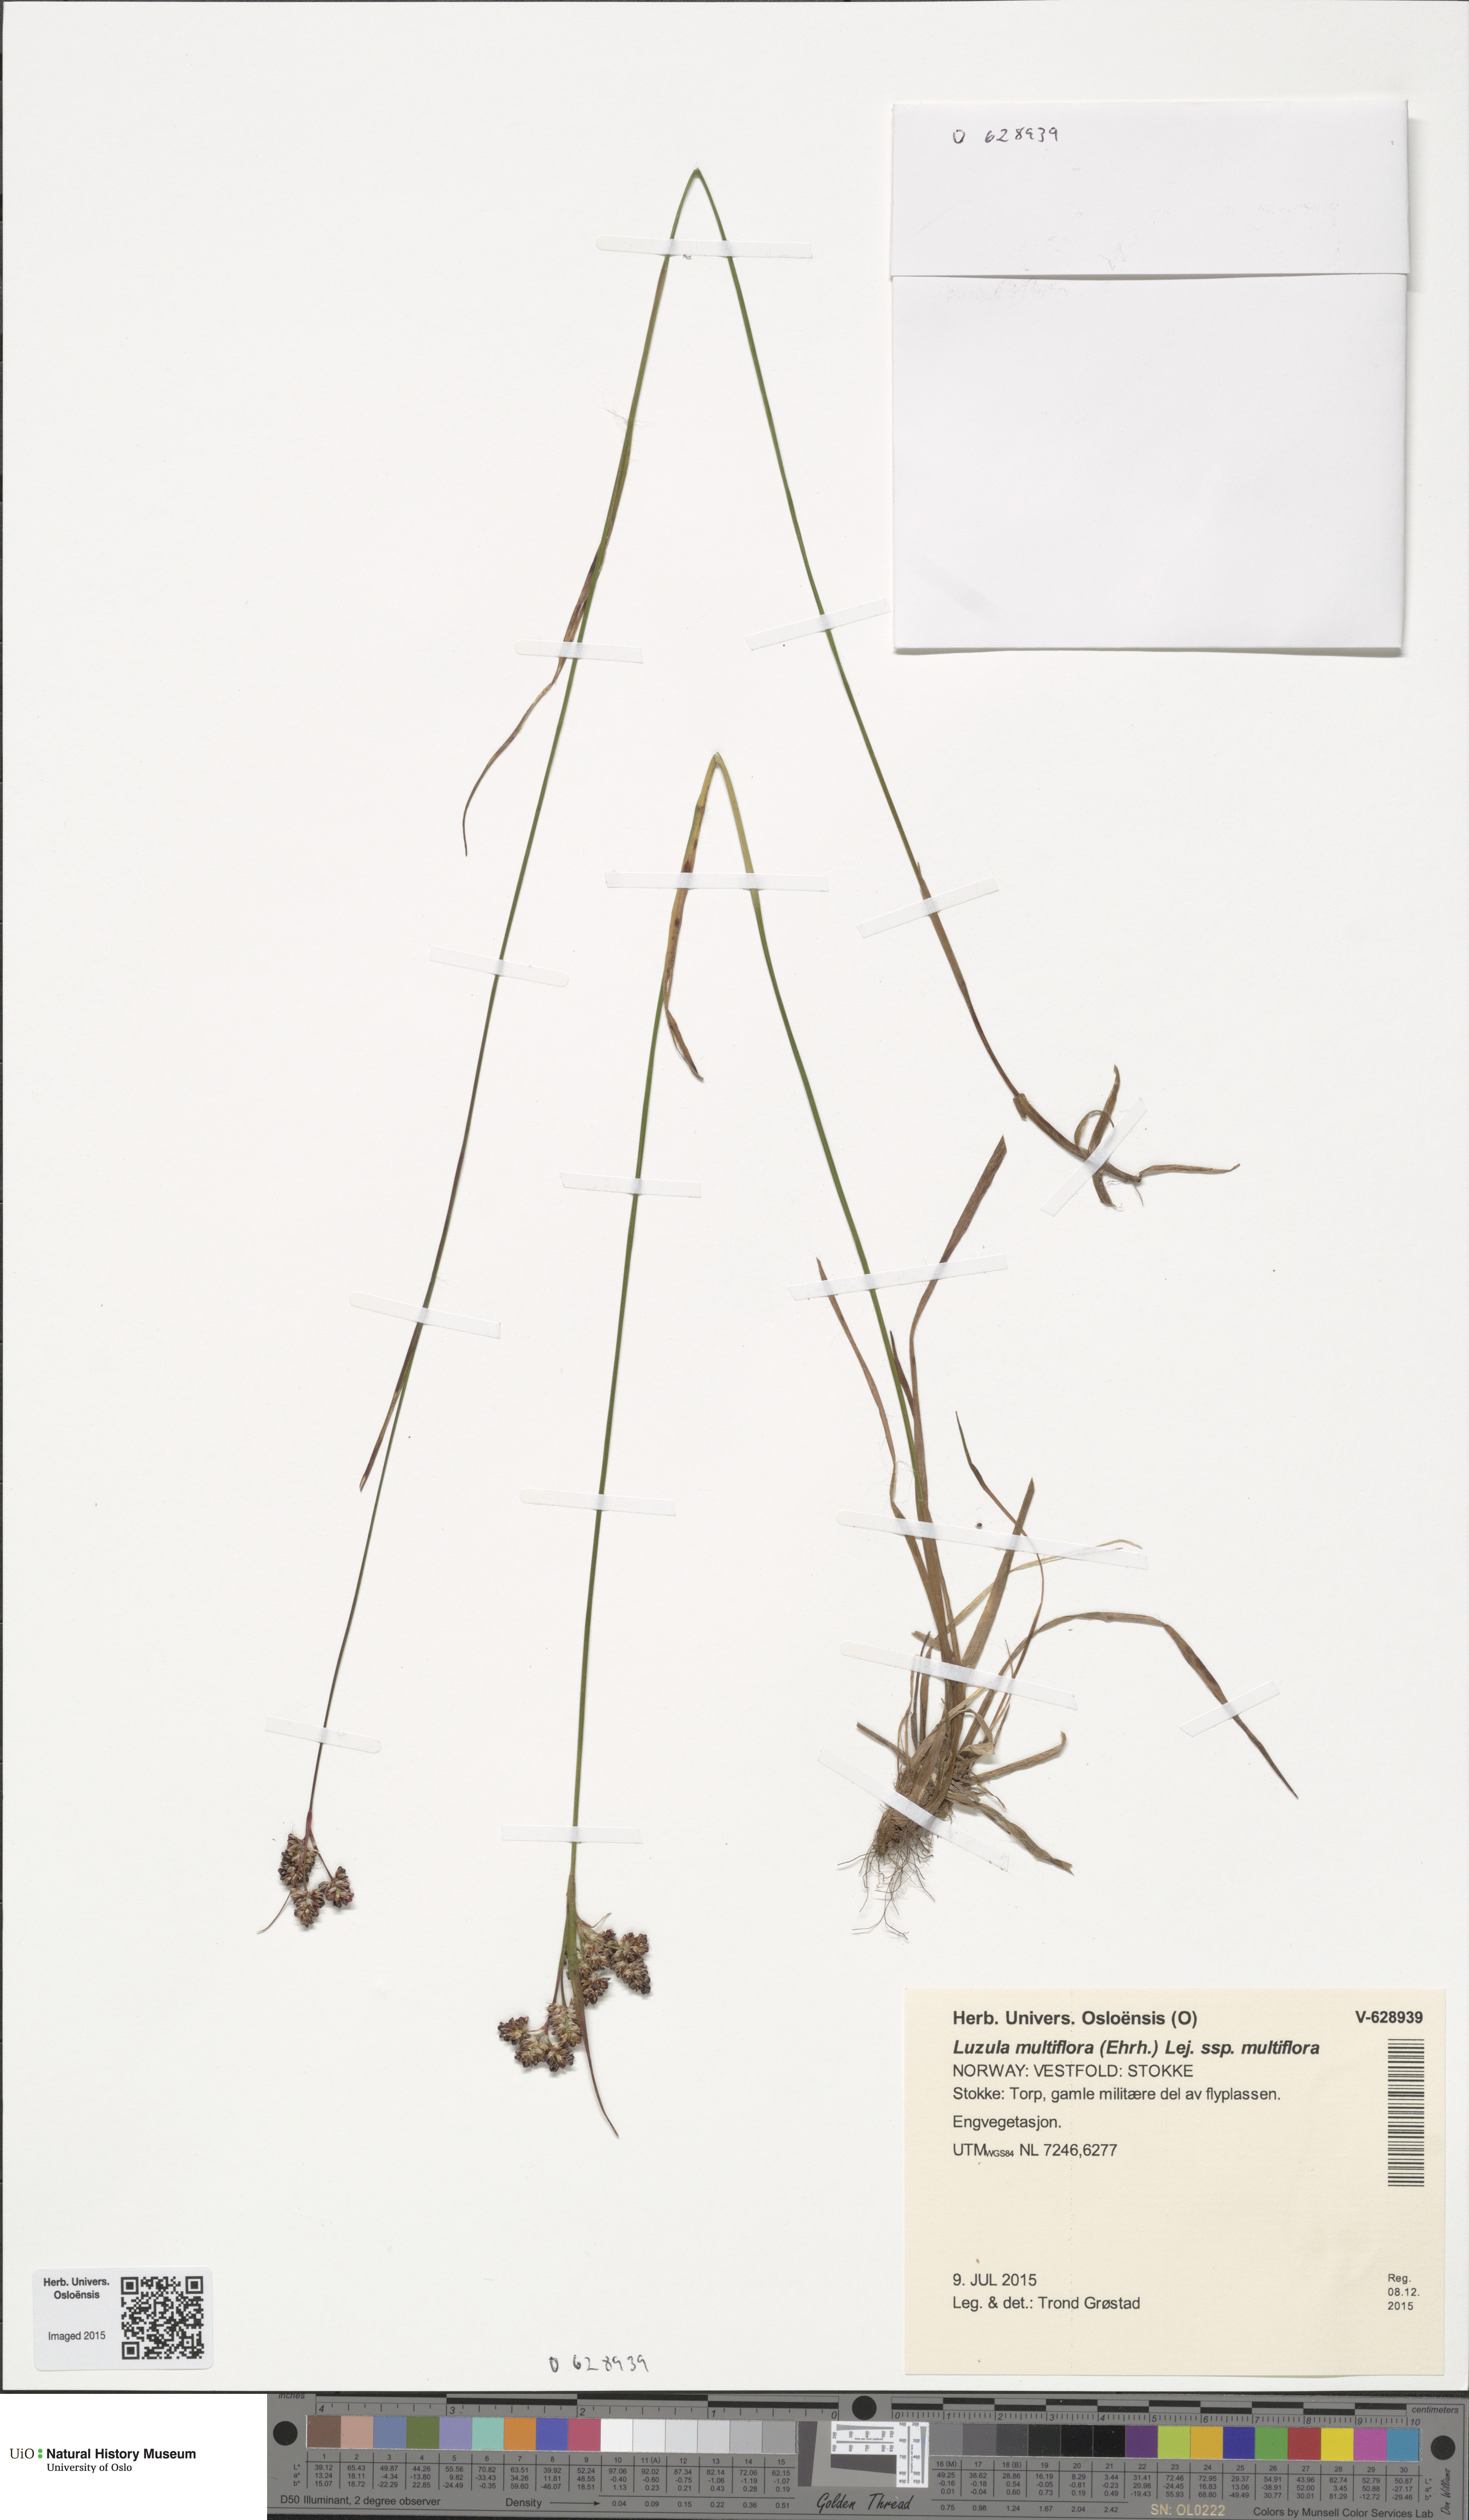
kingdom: Plantae
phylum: Tracheophyta
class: Liliopsida
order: Poales
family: Juncaceae
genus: Luzula
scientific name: Luzula multiflora
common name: Heath wood-rush
